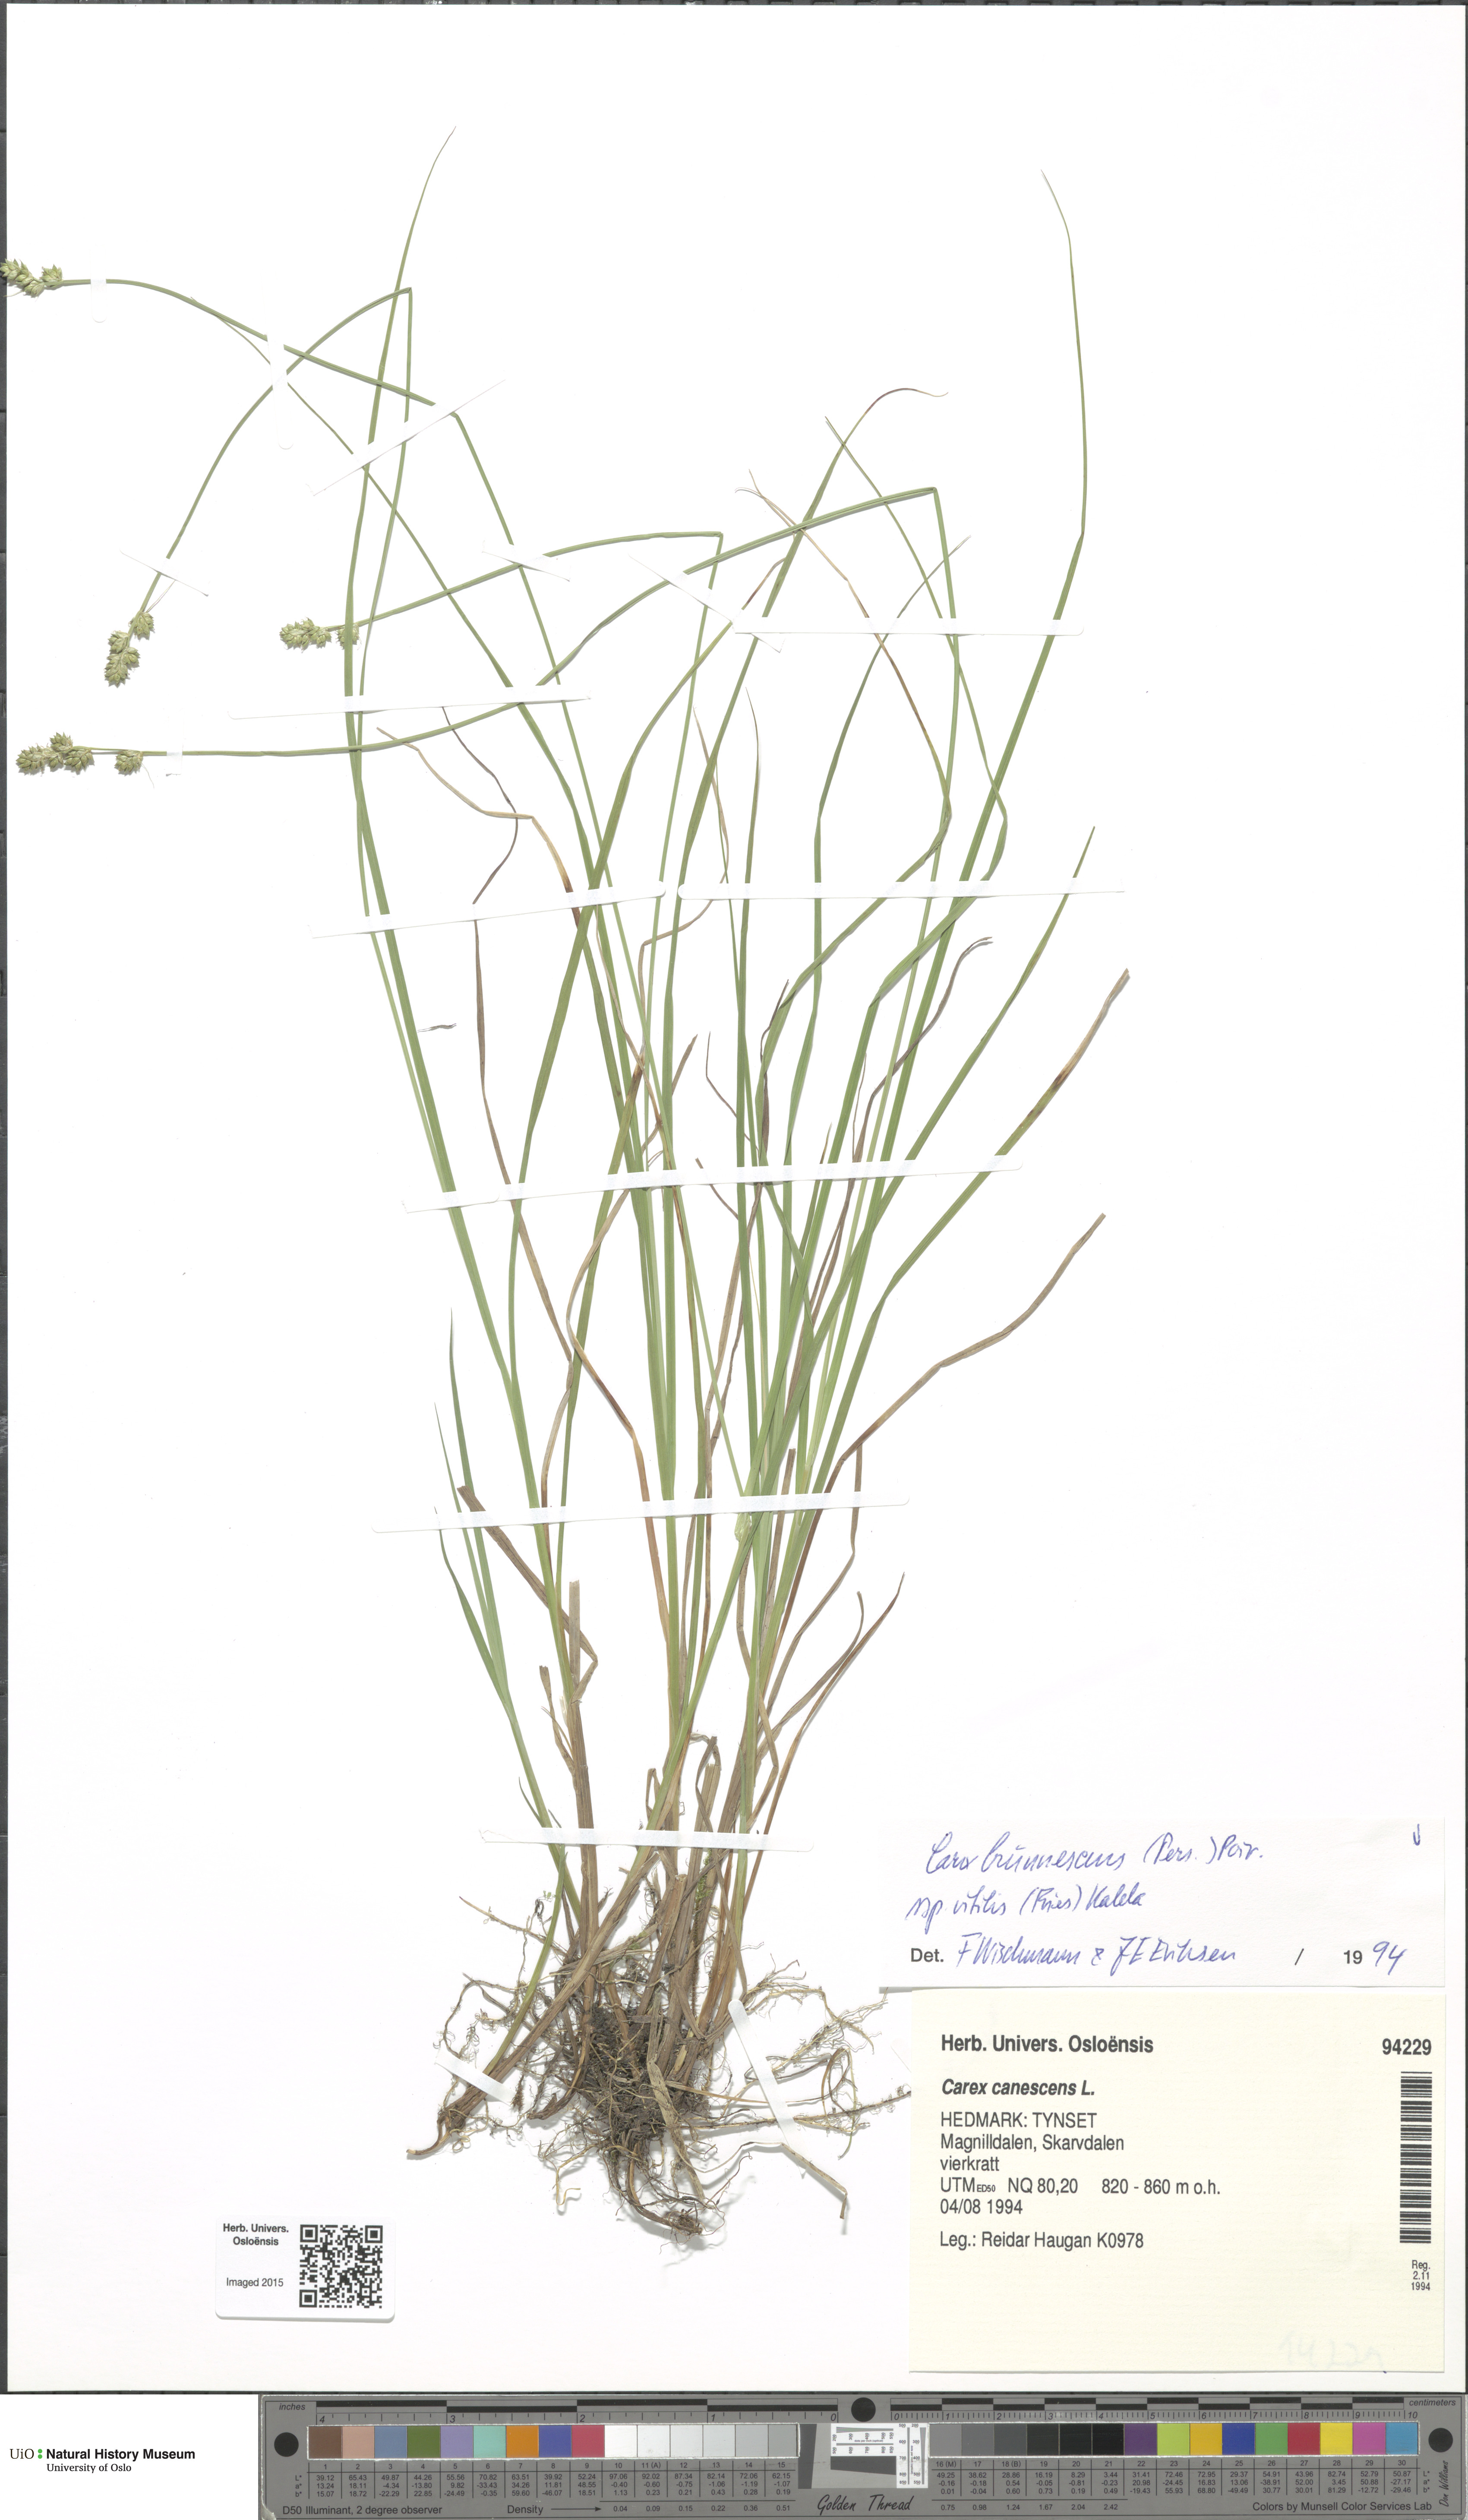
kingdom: Plantae
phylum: Tracheophyta
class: Liliopsida
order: Poales
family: Cyperaceae
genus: Carex
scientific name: Carex brunnescens
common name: Brown sedge
